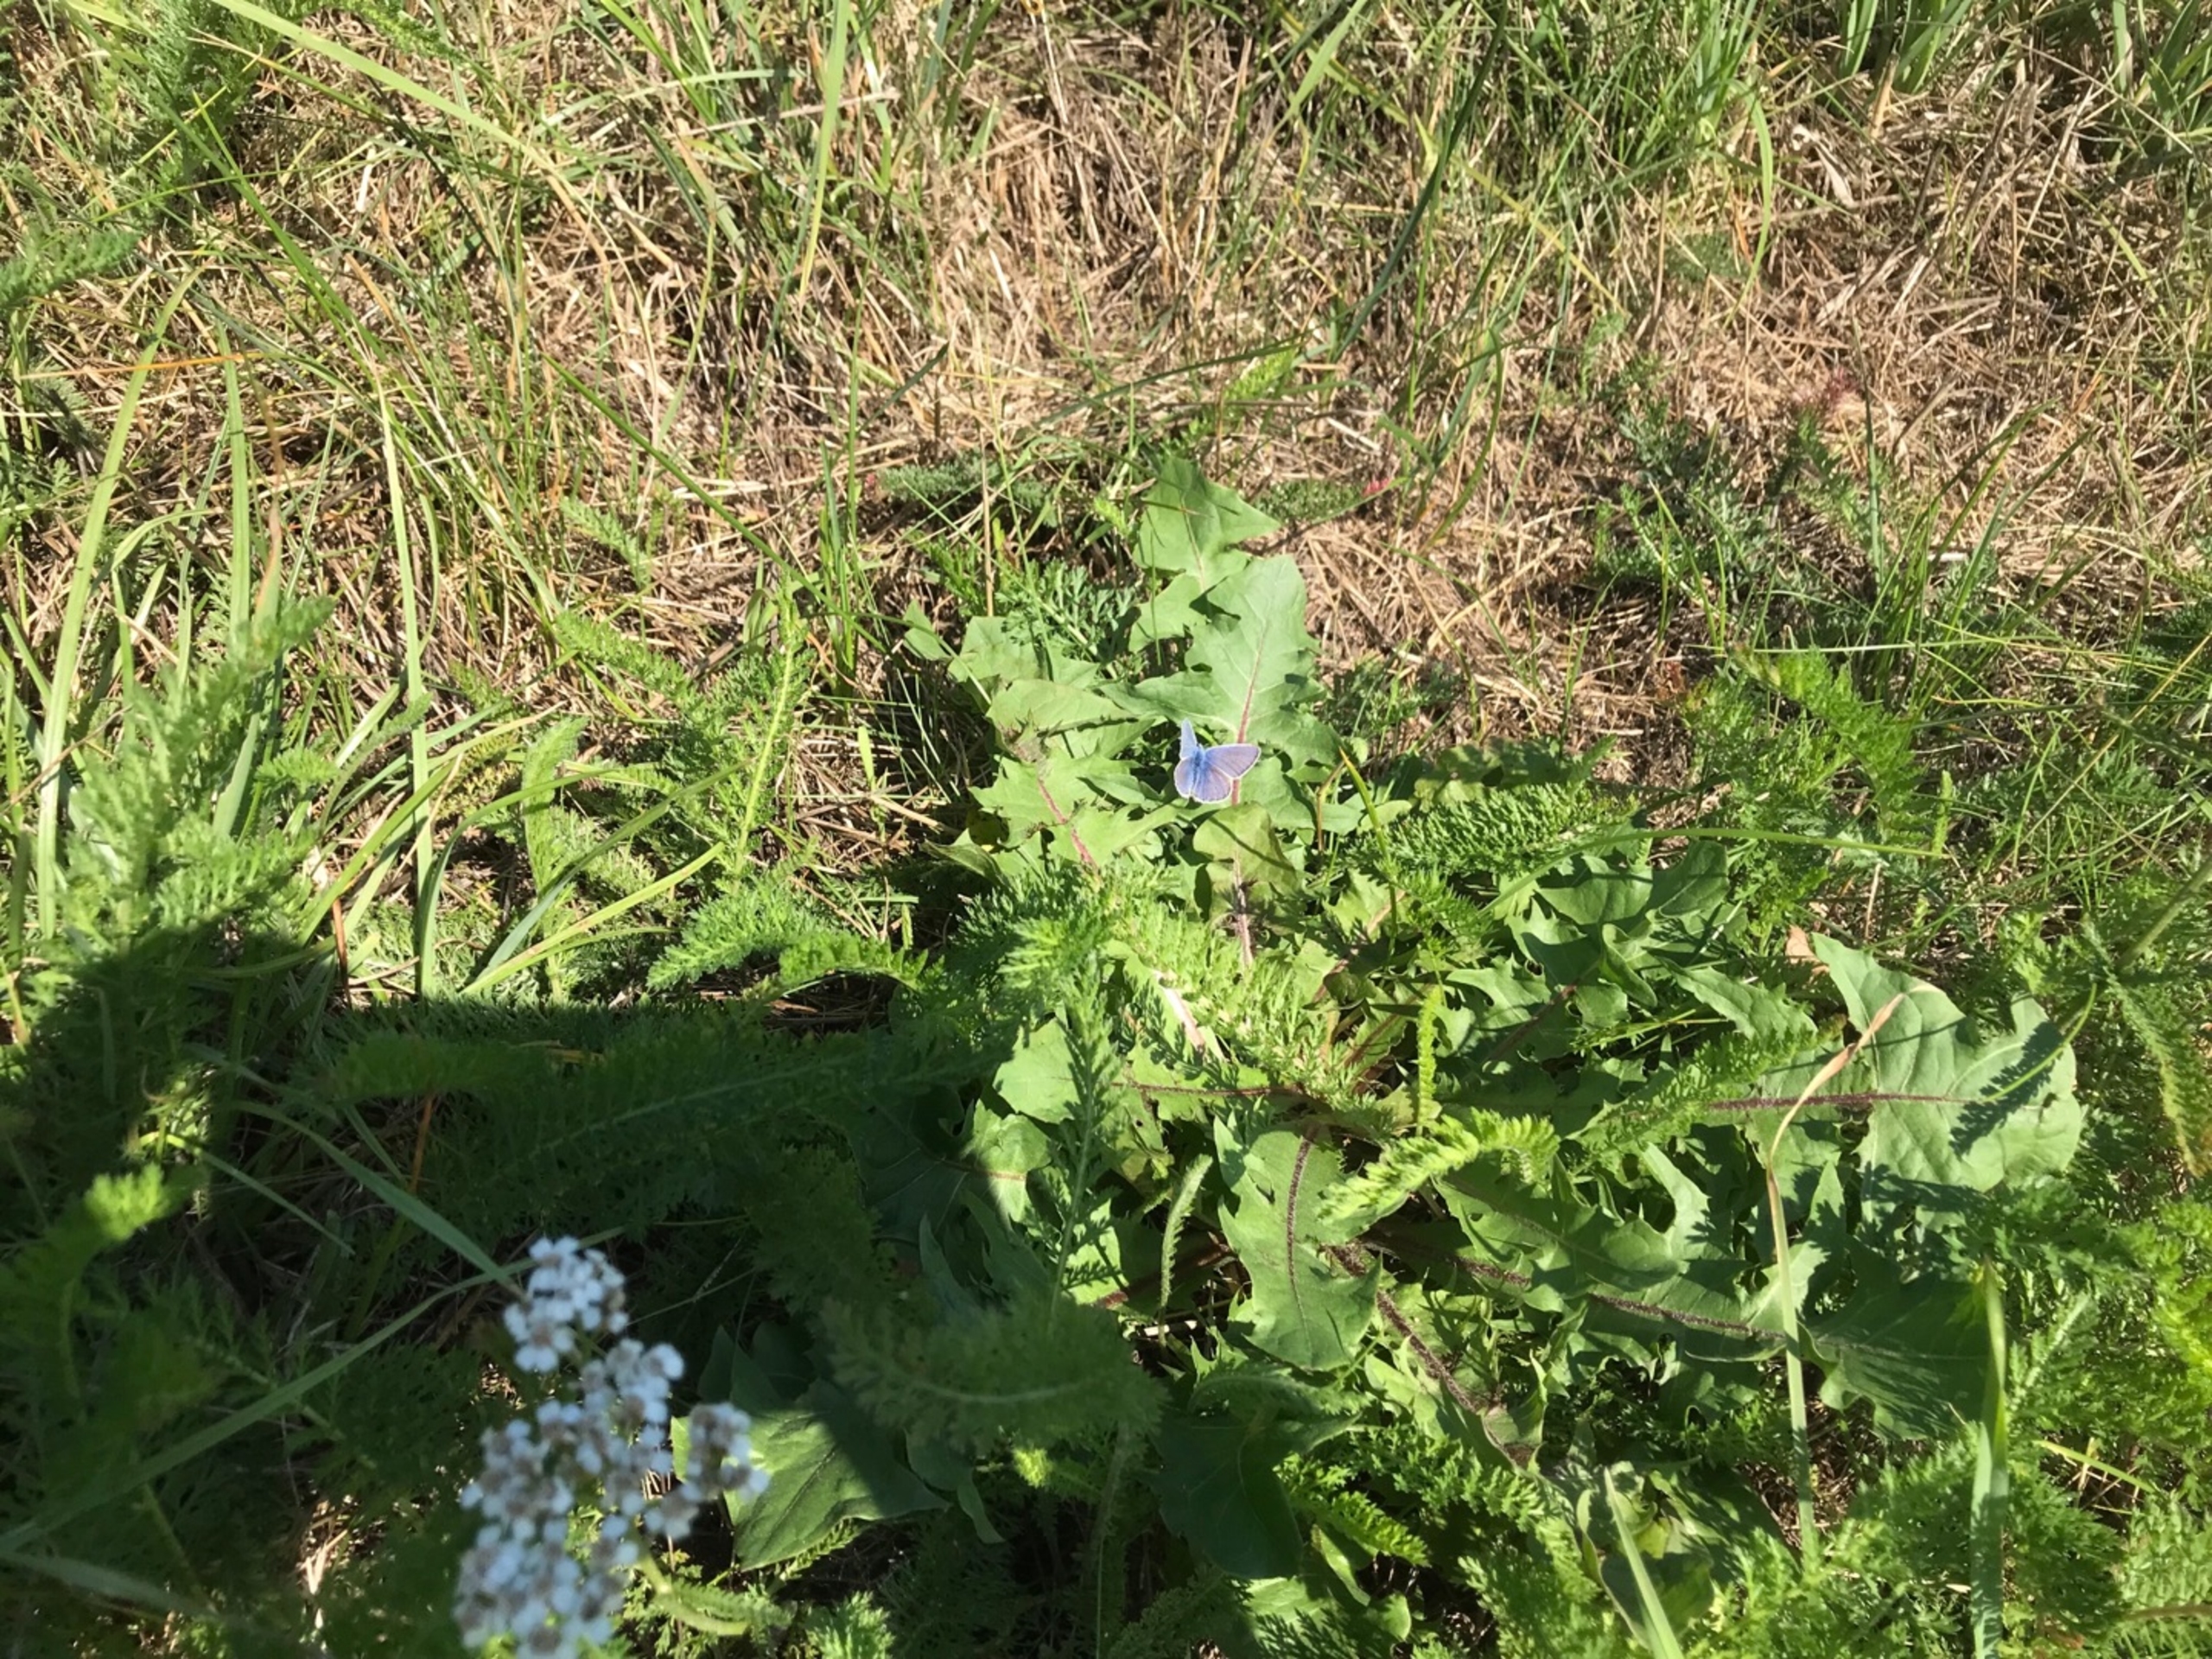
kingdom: Animalia
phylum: Arthropoda
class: Insecta
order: Lepidoptera
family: Lycaenidae
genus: Polyommatus
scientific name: Polyommatus icarus
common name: Almindelig blåfugl
